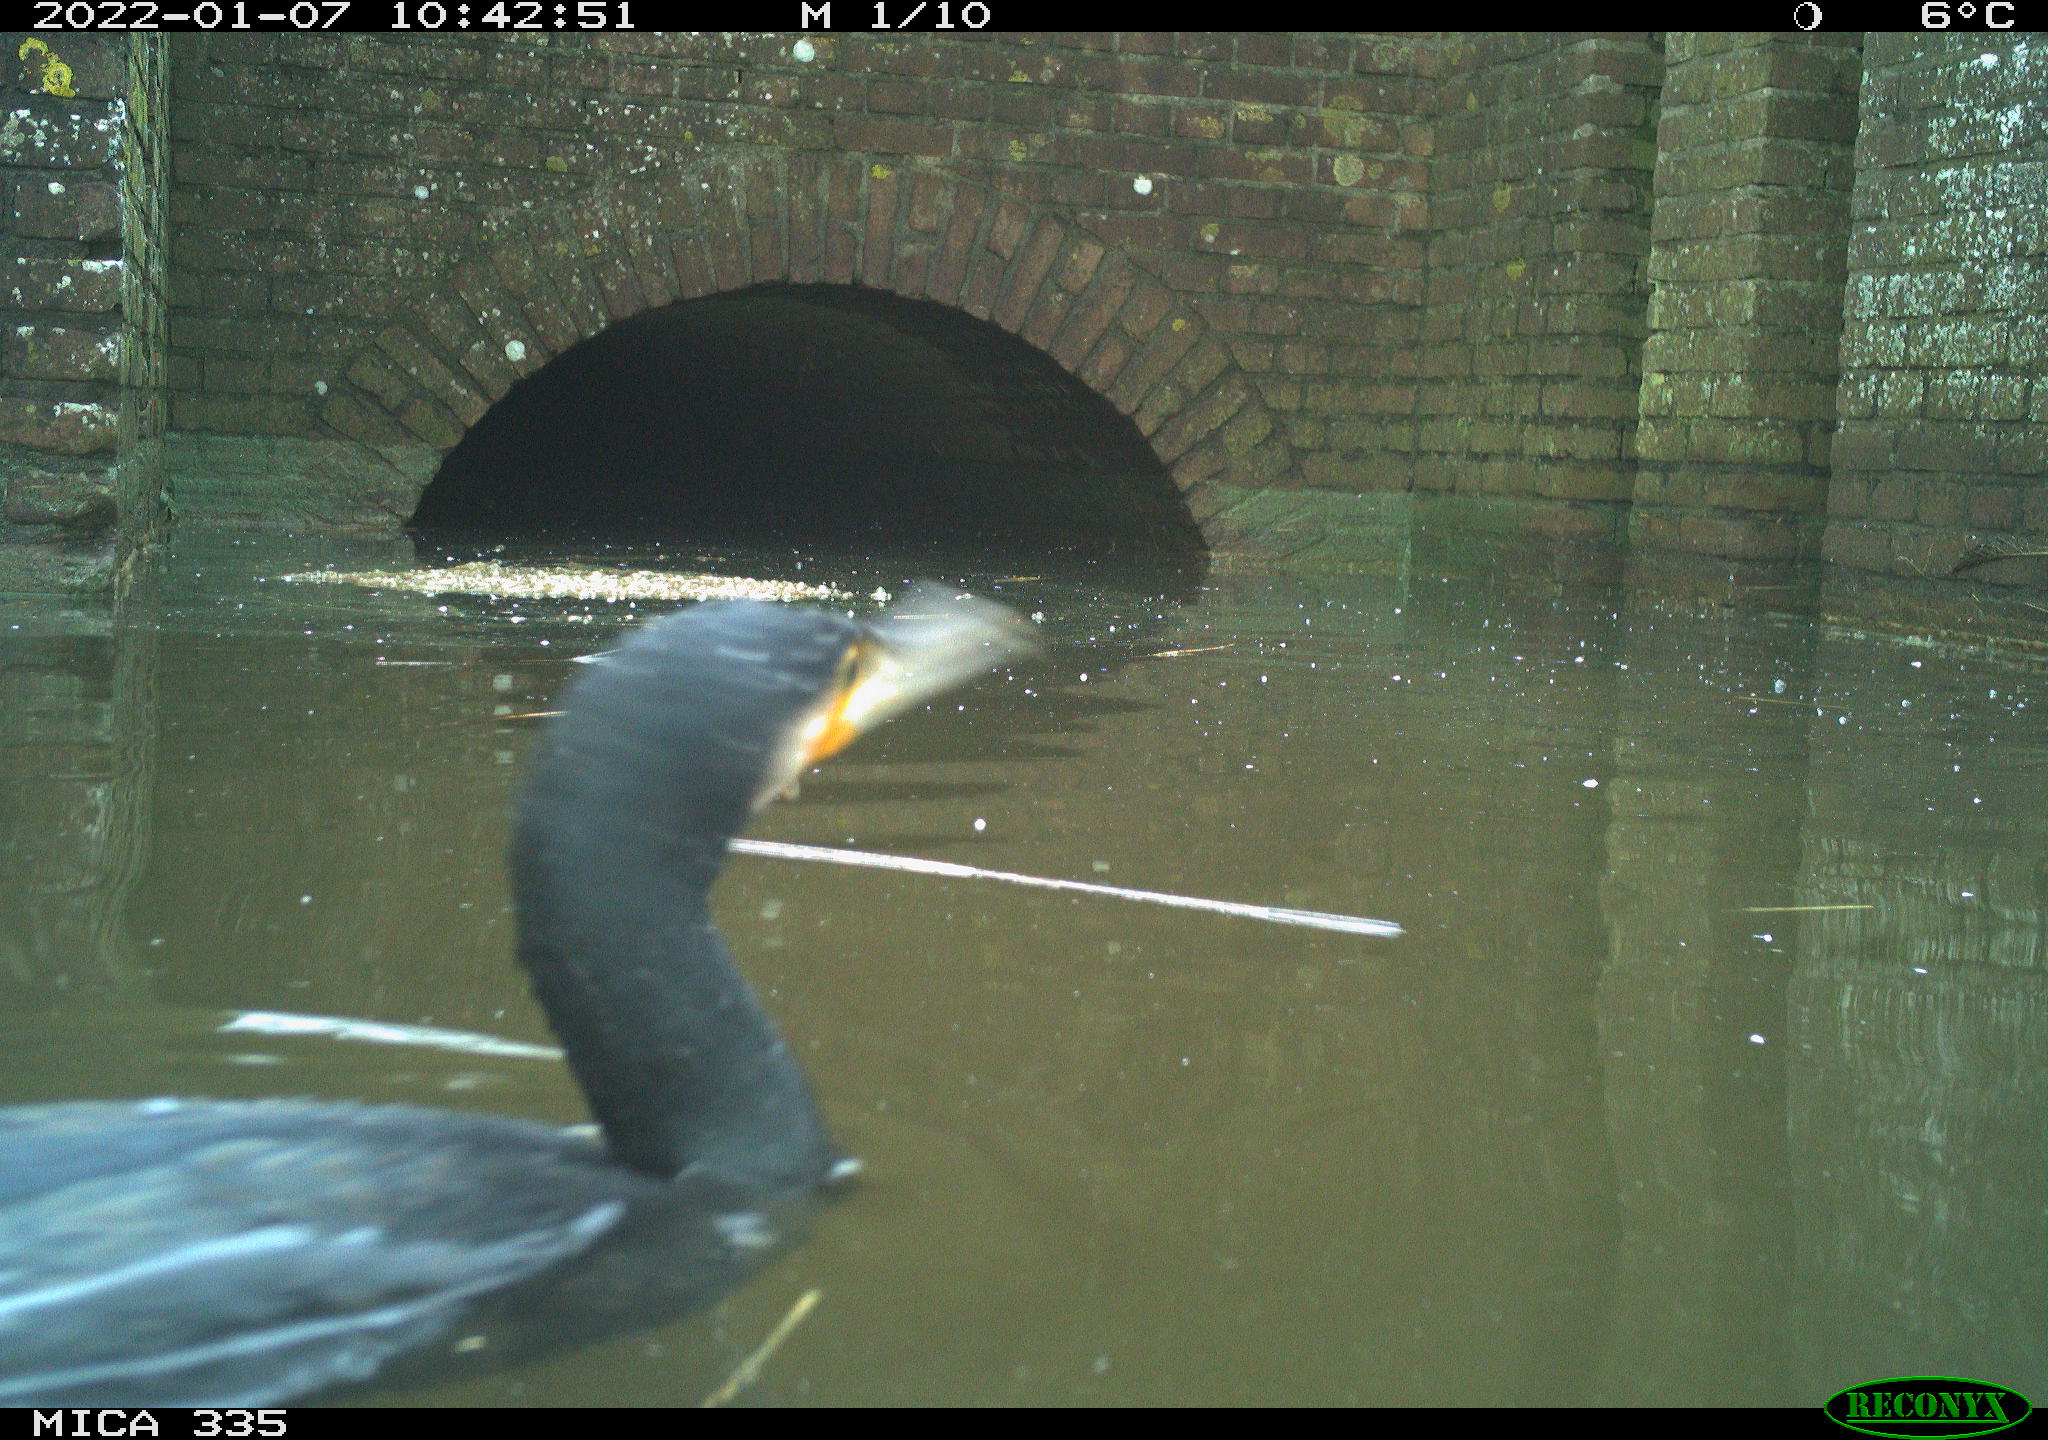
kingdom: Animalia
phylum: Chordata
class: Aves
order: Suliformes
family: Phalacrocoracidae
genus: Phalacrocorax
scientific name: Phalacrocorax carbo
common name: Great cormorant
